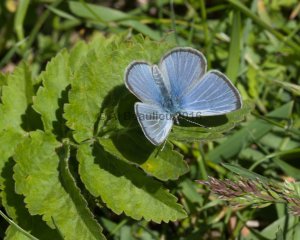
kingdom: Animalia
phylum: Arthropoda
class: Insecta
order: Lepidoptera
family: Lycaenidae
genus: Glaucopsyche
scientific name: Glaucopsyche lygdamus
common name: Silvery Blue
